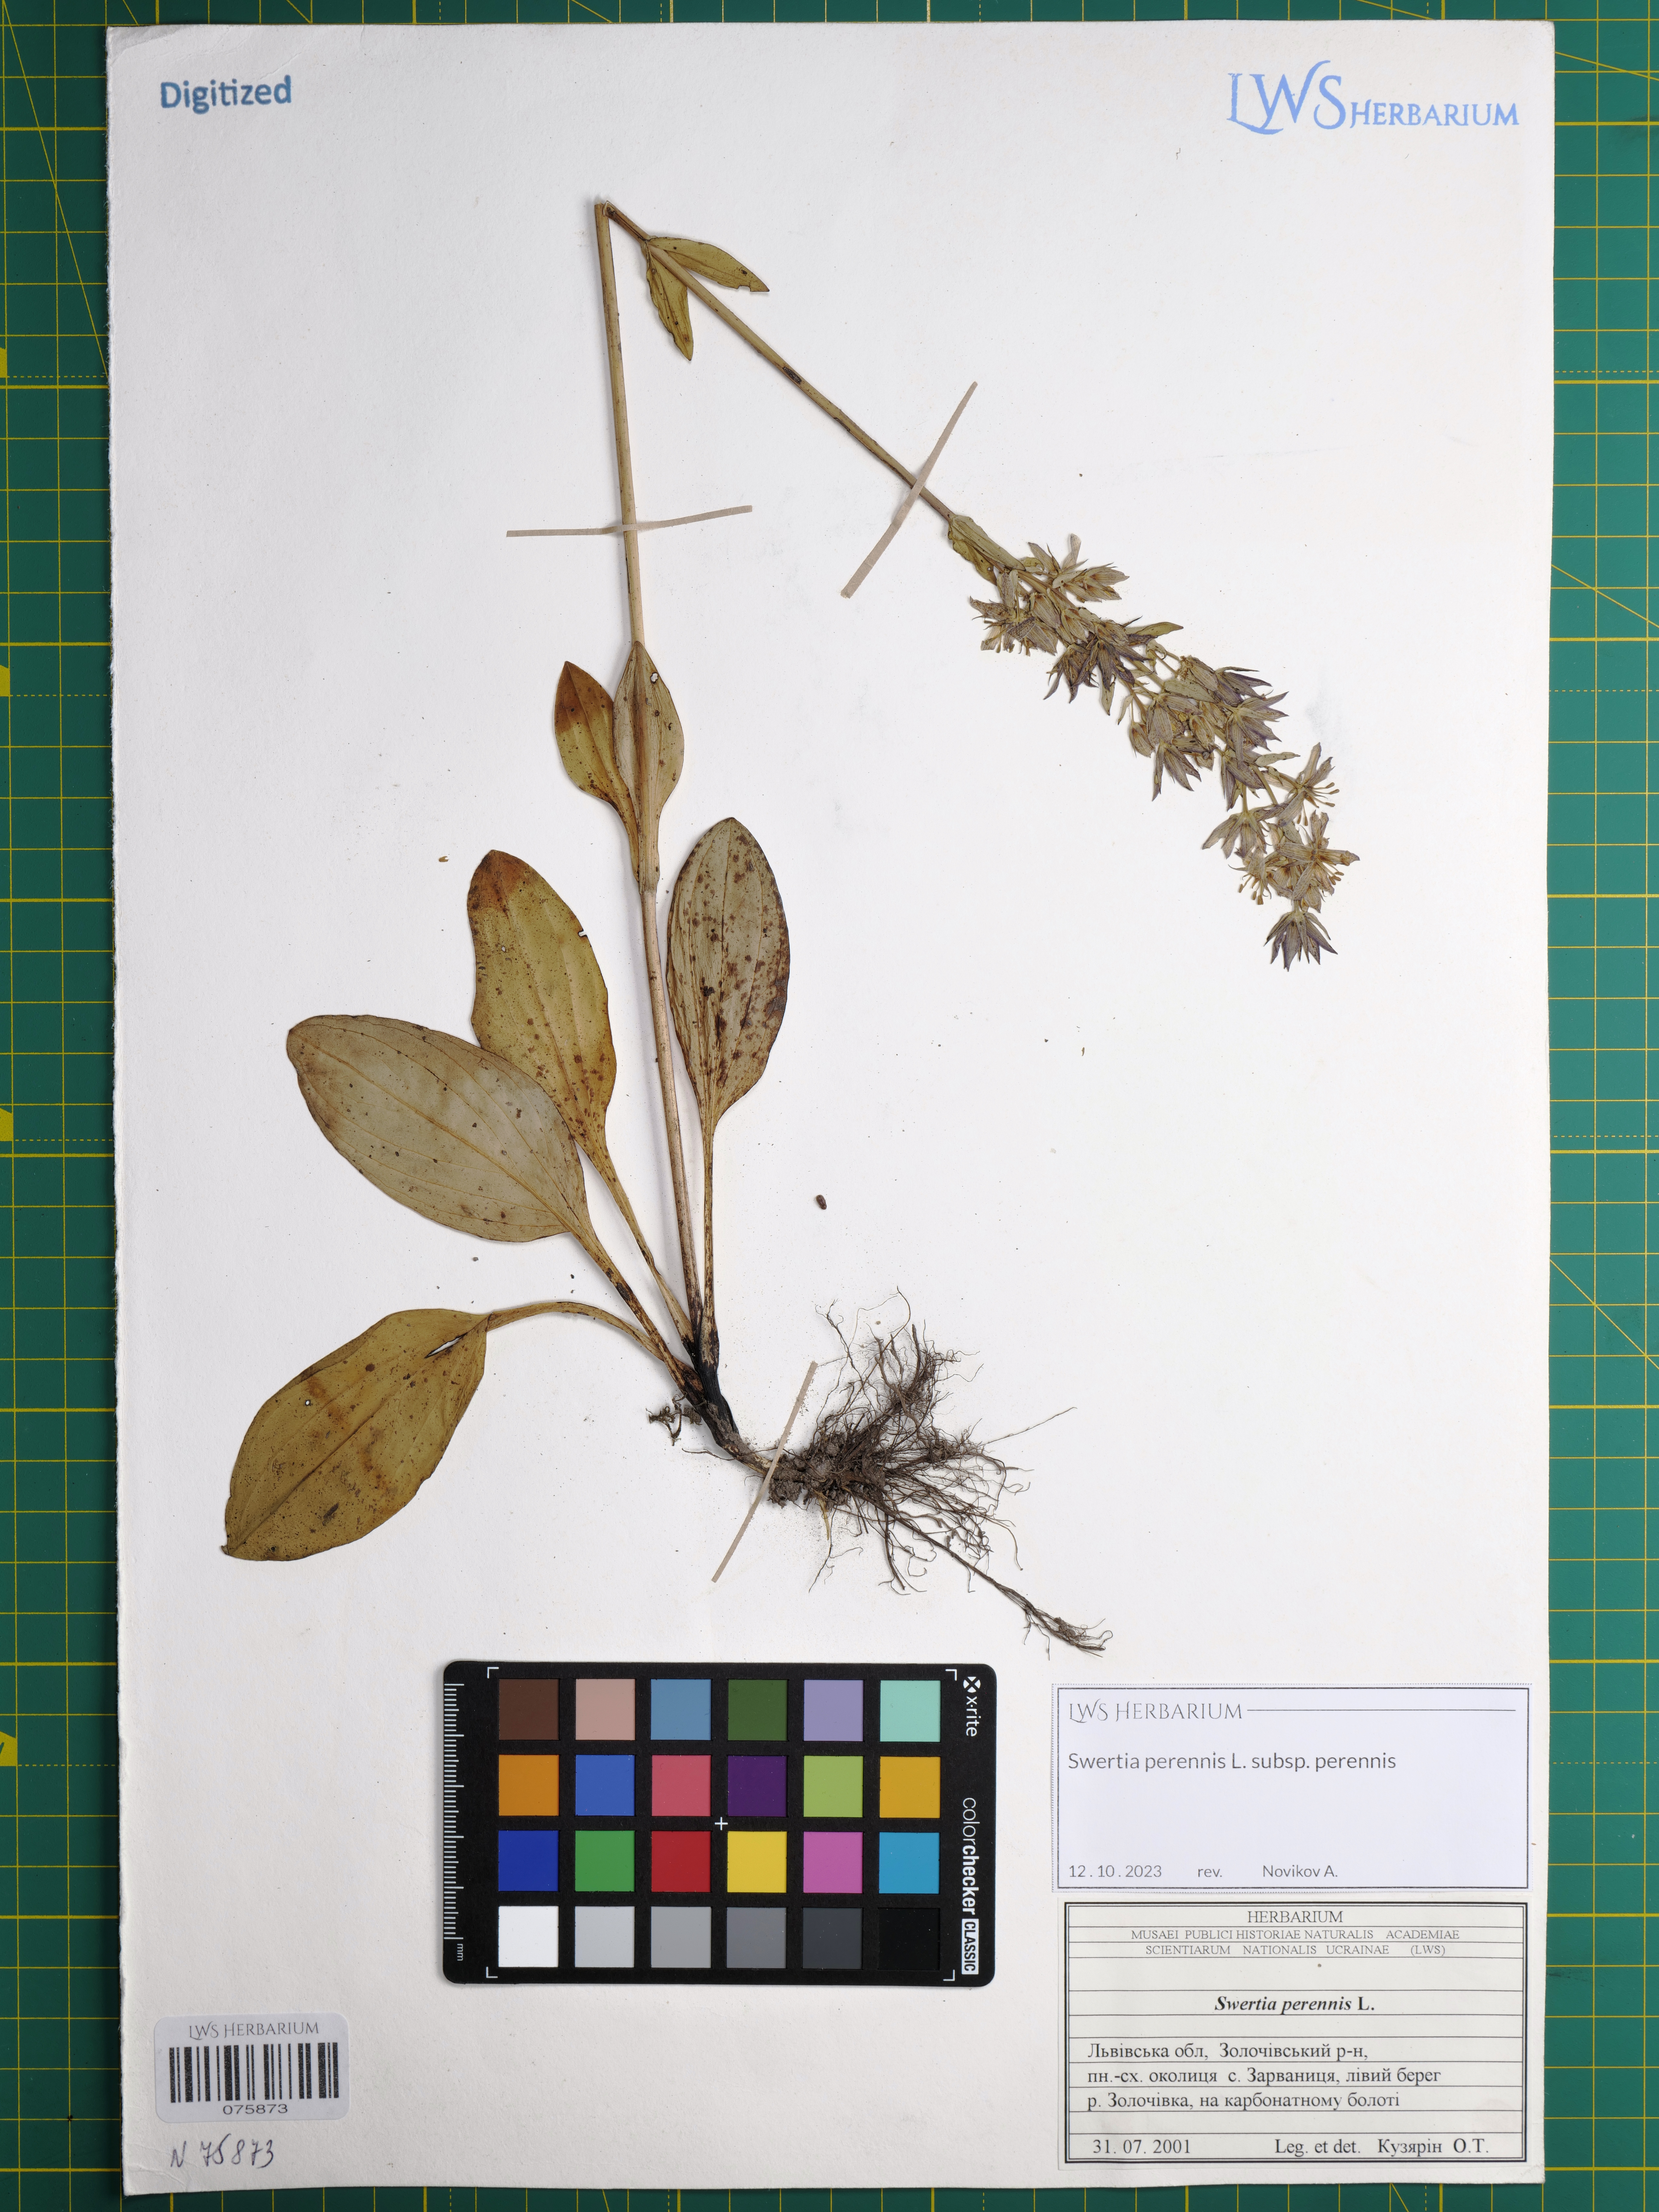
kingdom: Plantae
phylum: Tracheophyta
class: Magnoliopsida
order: Gentianales
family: Gentianaceae
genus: Swertia
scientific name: Swertia perennis
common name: Alpine bog swertia
